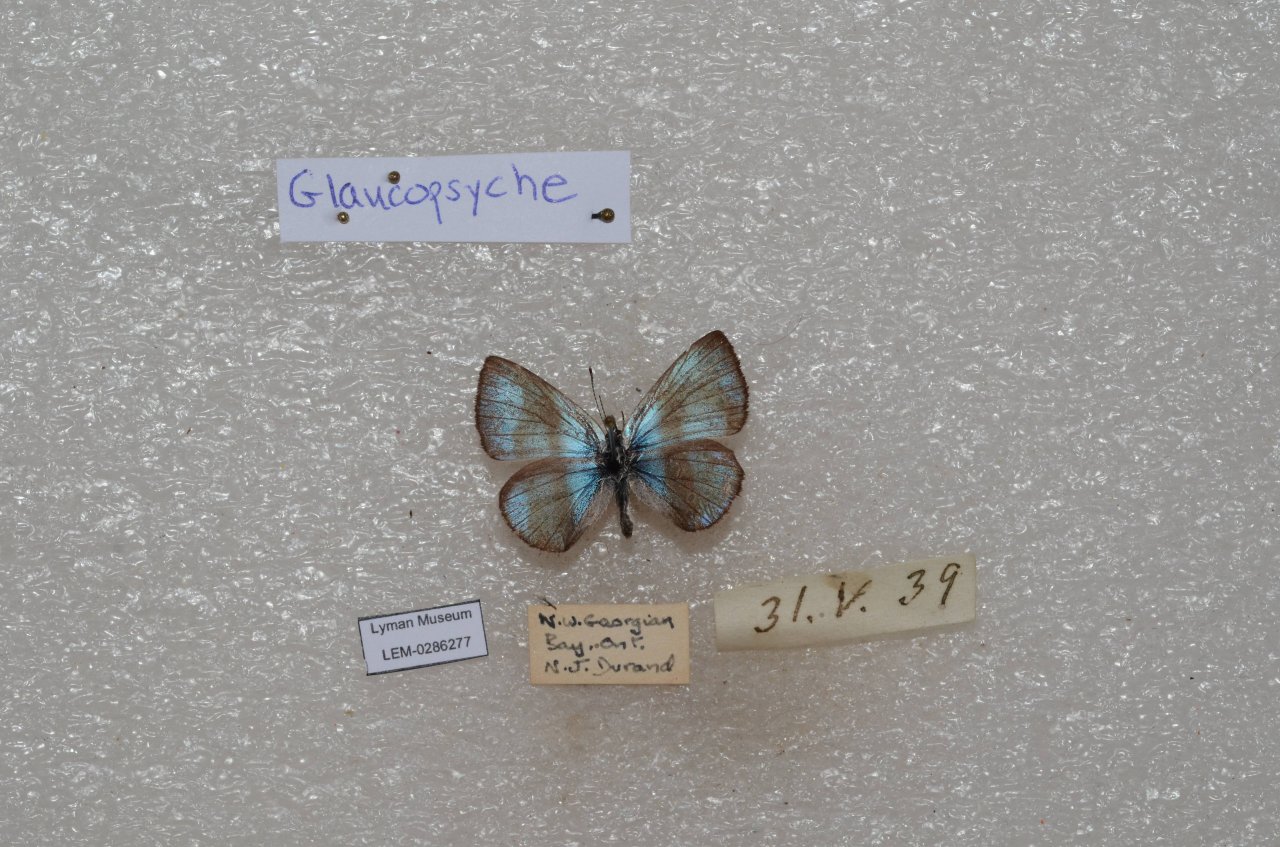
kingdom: Animalia
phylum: Arthropoda
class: Insecta
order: Lepidoptera
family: Lycaenidae
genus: Glaucopsyche
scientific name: Glaucopsyche lygdamus
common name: Silvery Blue
